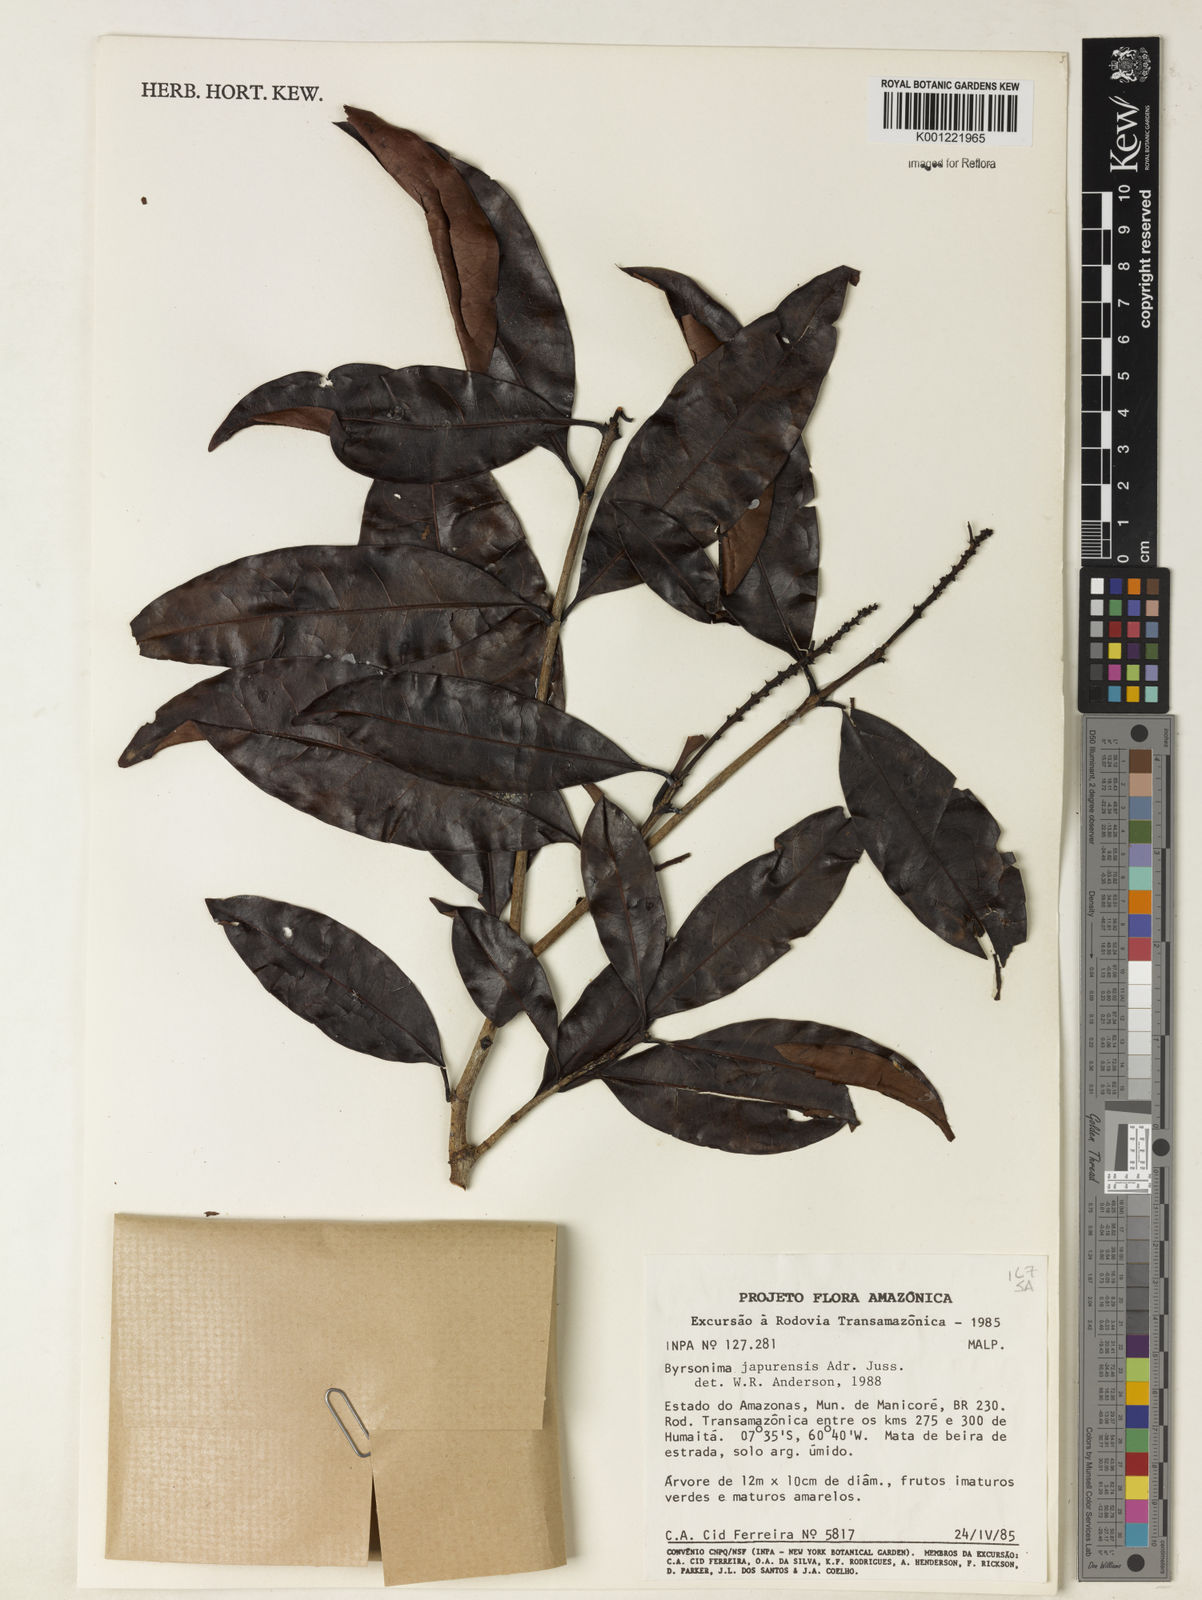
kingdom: Plantae
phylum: Tracheophyta
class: Magnoliopsida
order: Malpighiales
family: Malpighiaceae
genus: Byrsonima
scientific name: Byrsonima japurensis
